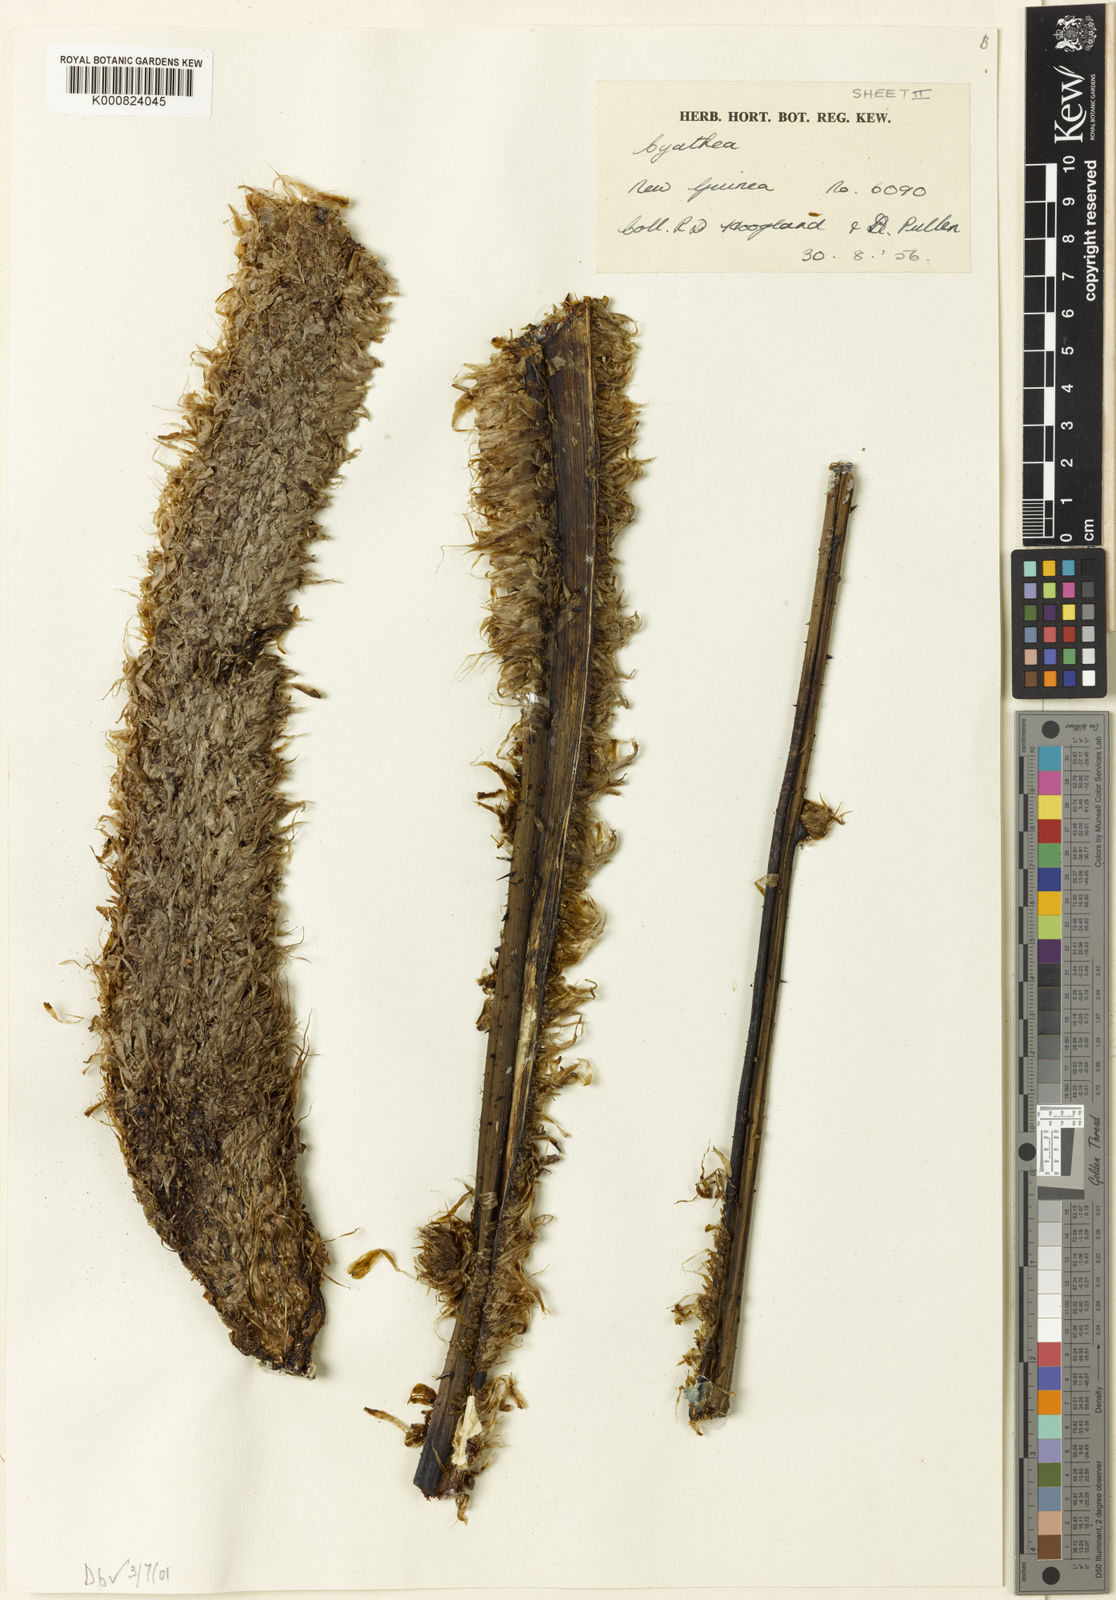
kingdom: Plantae
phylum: Tracheophyta
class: Polypodiopsida
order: Cyatheales
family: Cyatheaceae
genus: Cyathea
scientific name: Cyathea
